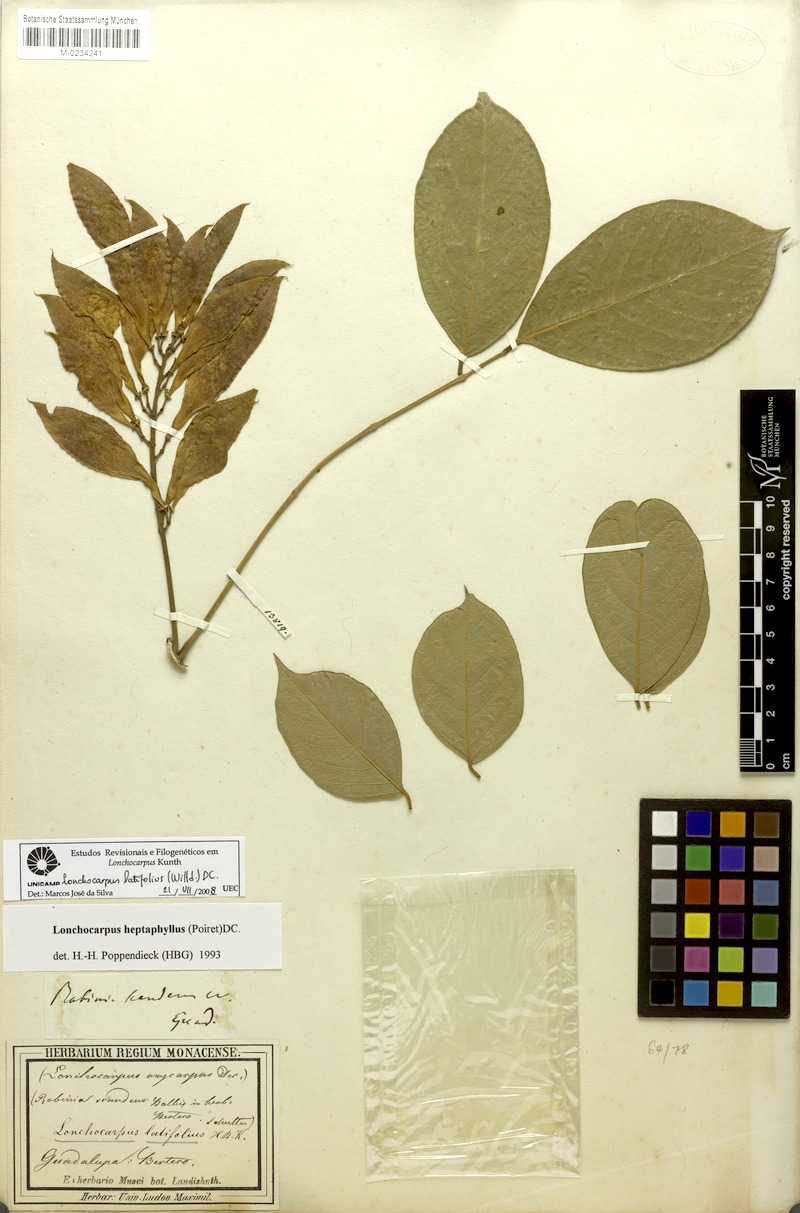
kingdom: Plantae
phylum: Tracheophyta
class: Magnoliopsida
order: Fabales
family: Fabaceae
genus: Lonchocarpus
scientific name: Lonchocarpus heptaphyllus
